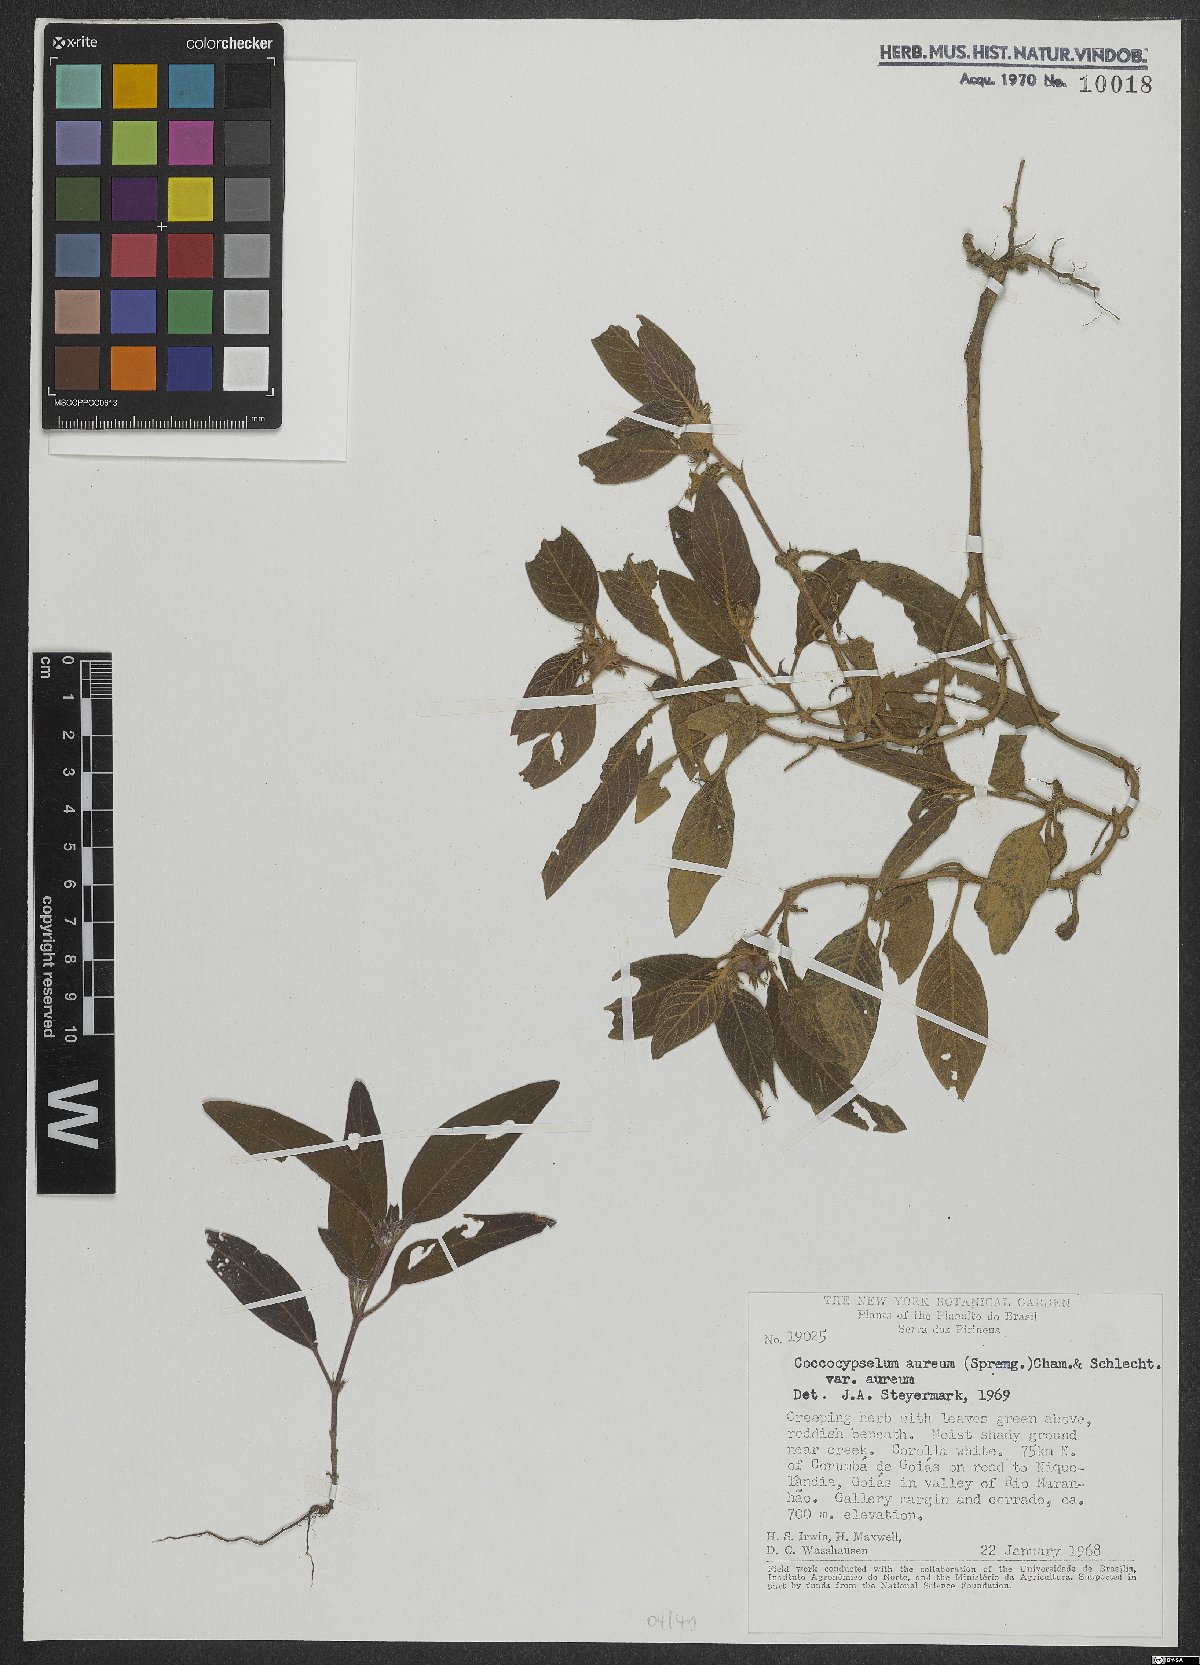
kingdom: Plantae
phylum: Tracheophyta
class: Magnoliopsida
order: Gentianales
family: Rubiaceae
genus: Coccocypselum
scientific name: Coccocypselum aureum
